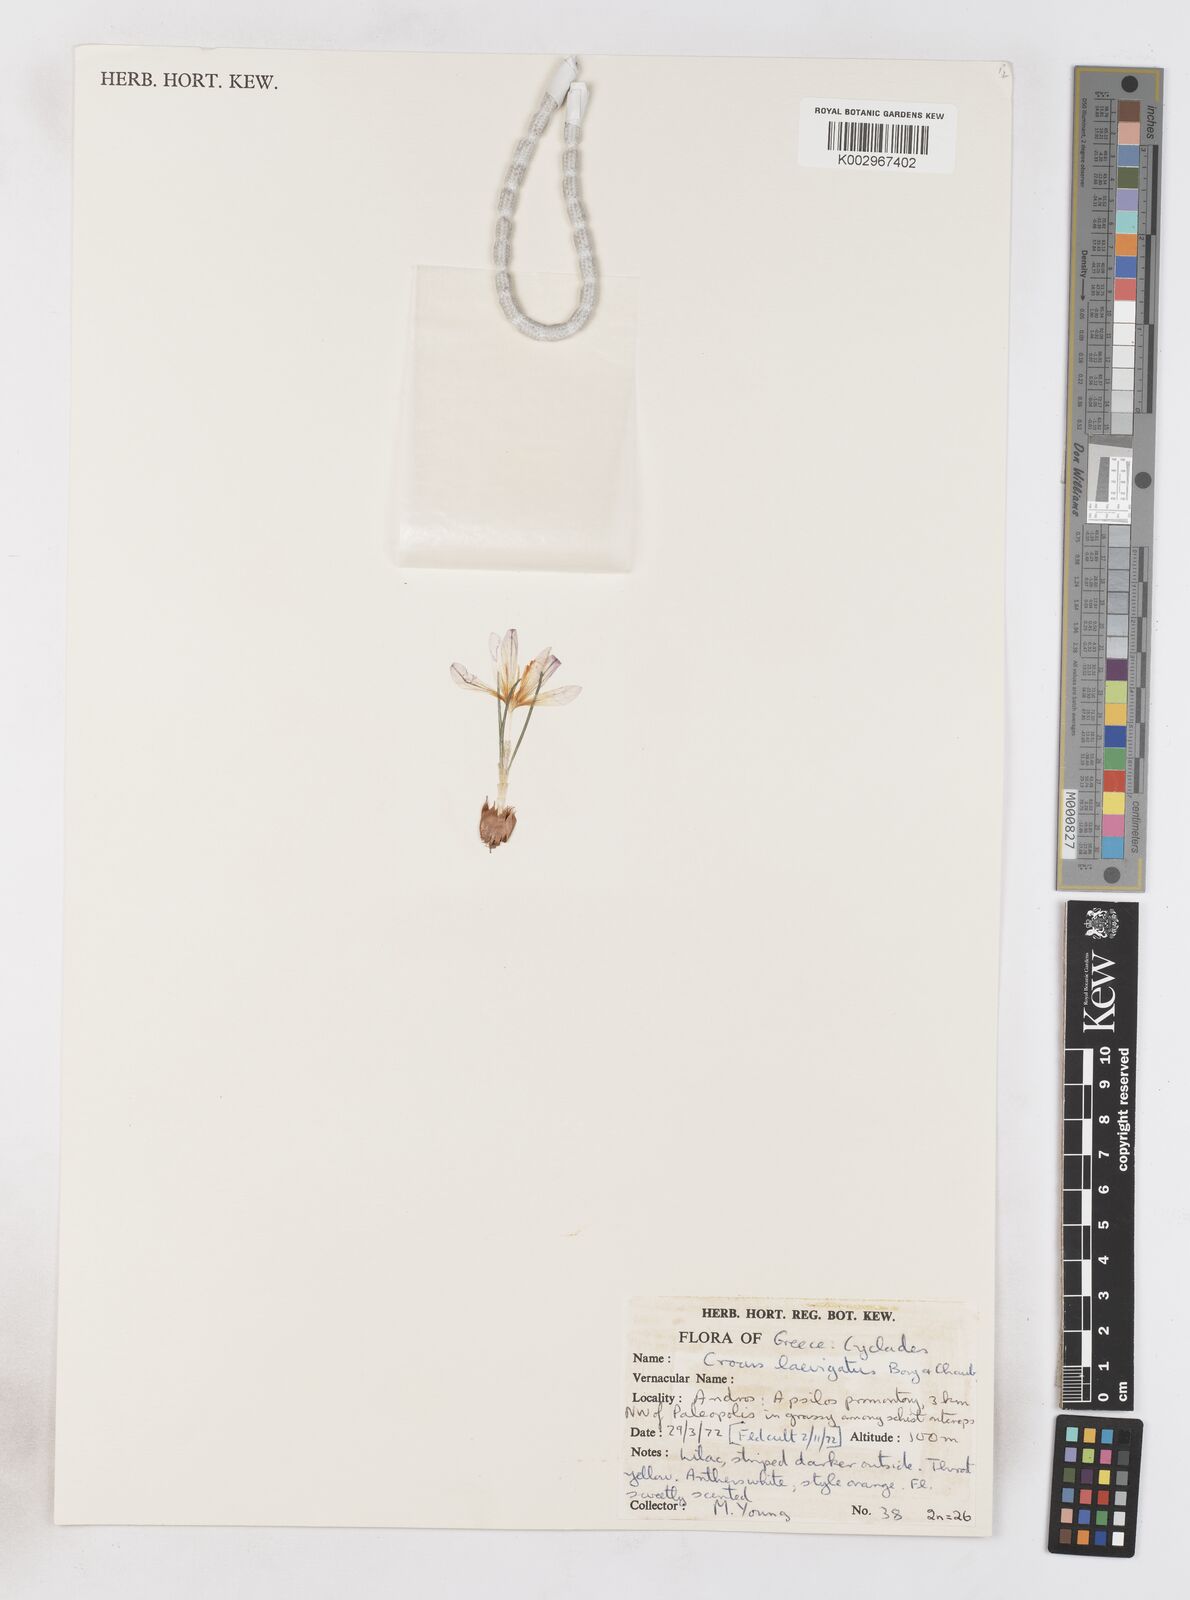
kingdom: Plantae
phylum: Tracheophyta
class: Liliopsida
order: Asparagales
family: Iridaceae
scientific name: Iridaceae
